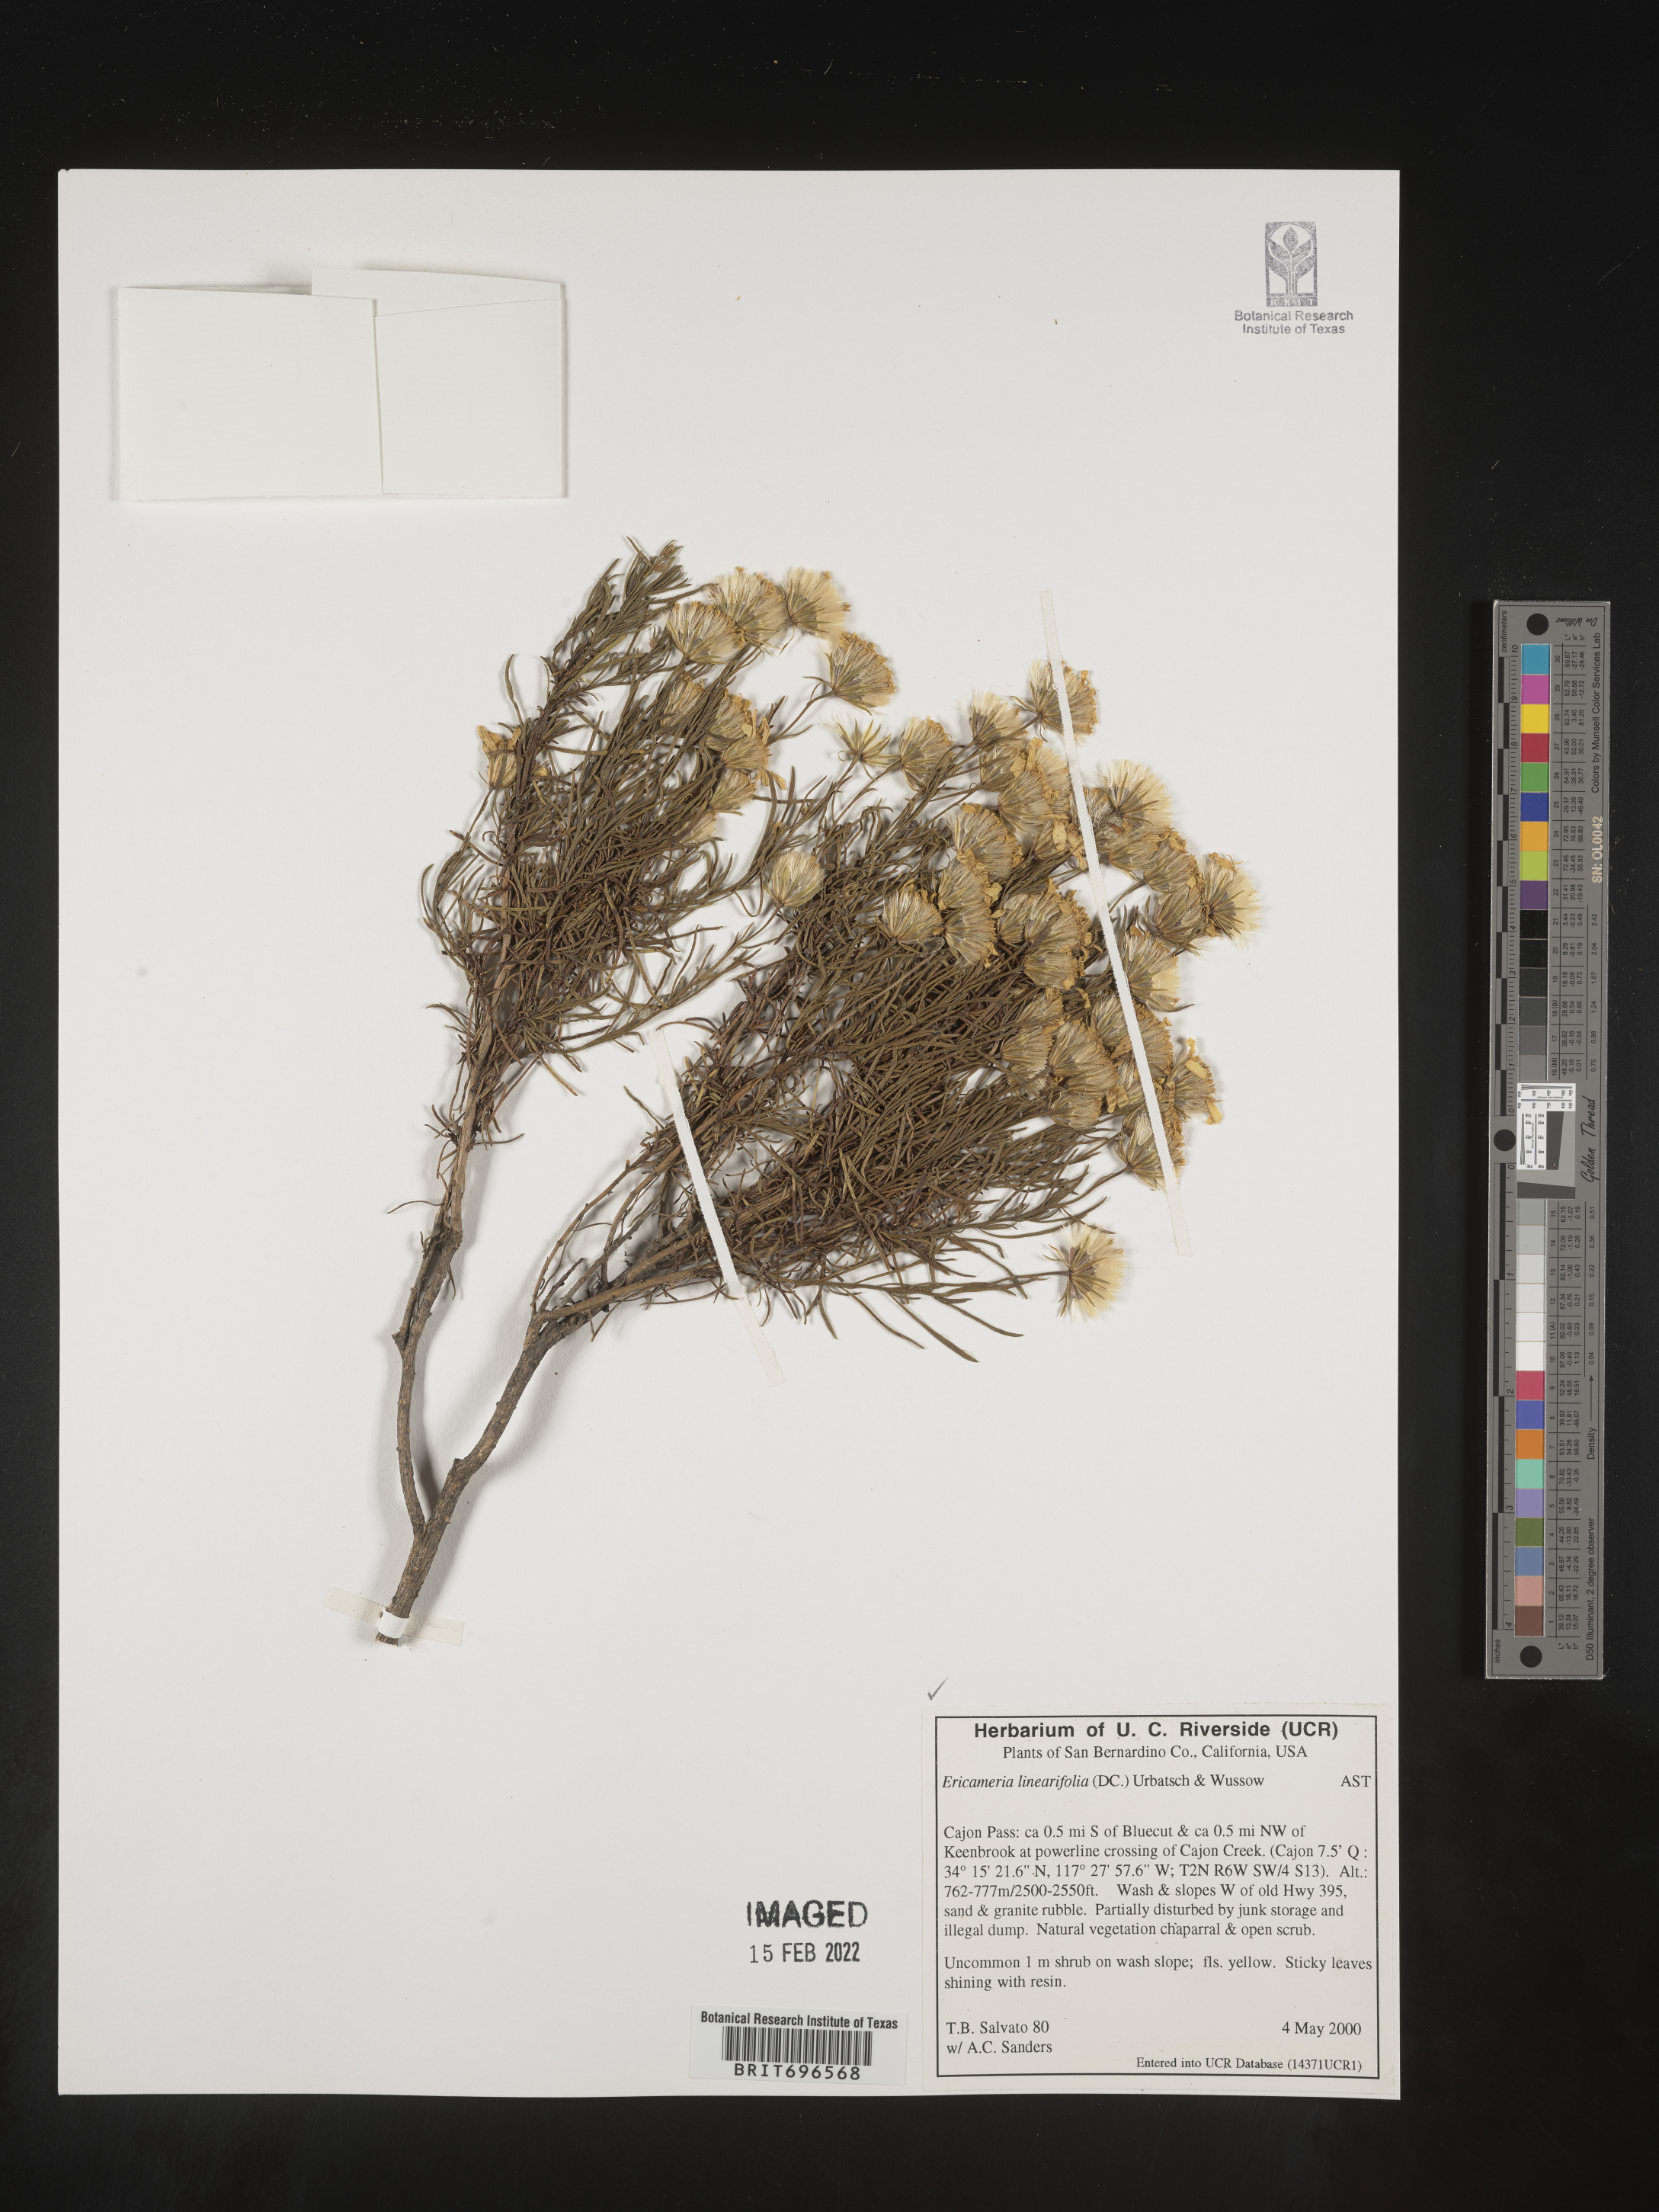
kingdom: Plantae
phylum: Tracheophyta
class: Magnoliopsida
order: Asterales
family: Asteraceae
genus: Ericameria
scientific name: Ericameria linearifolia
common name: Interior goldenbush
